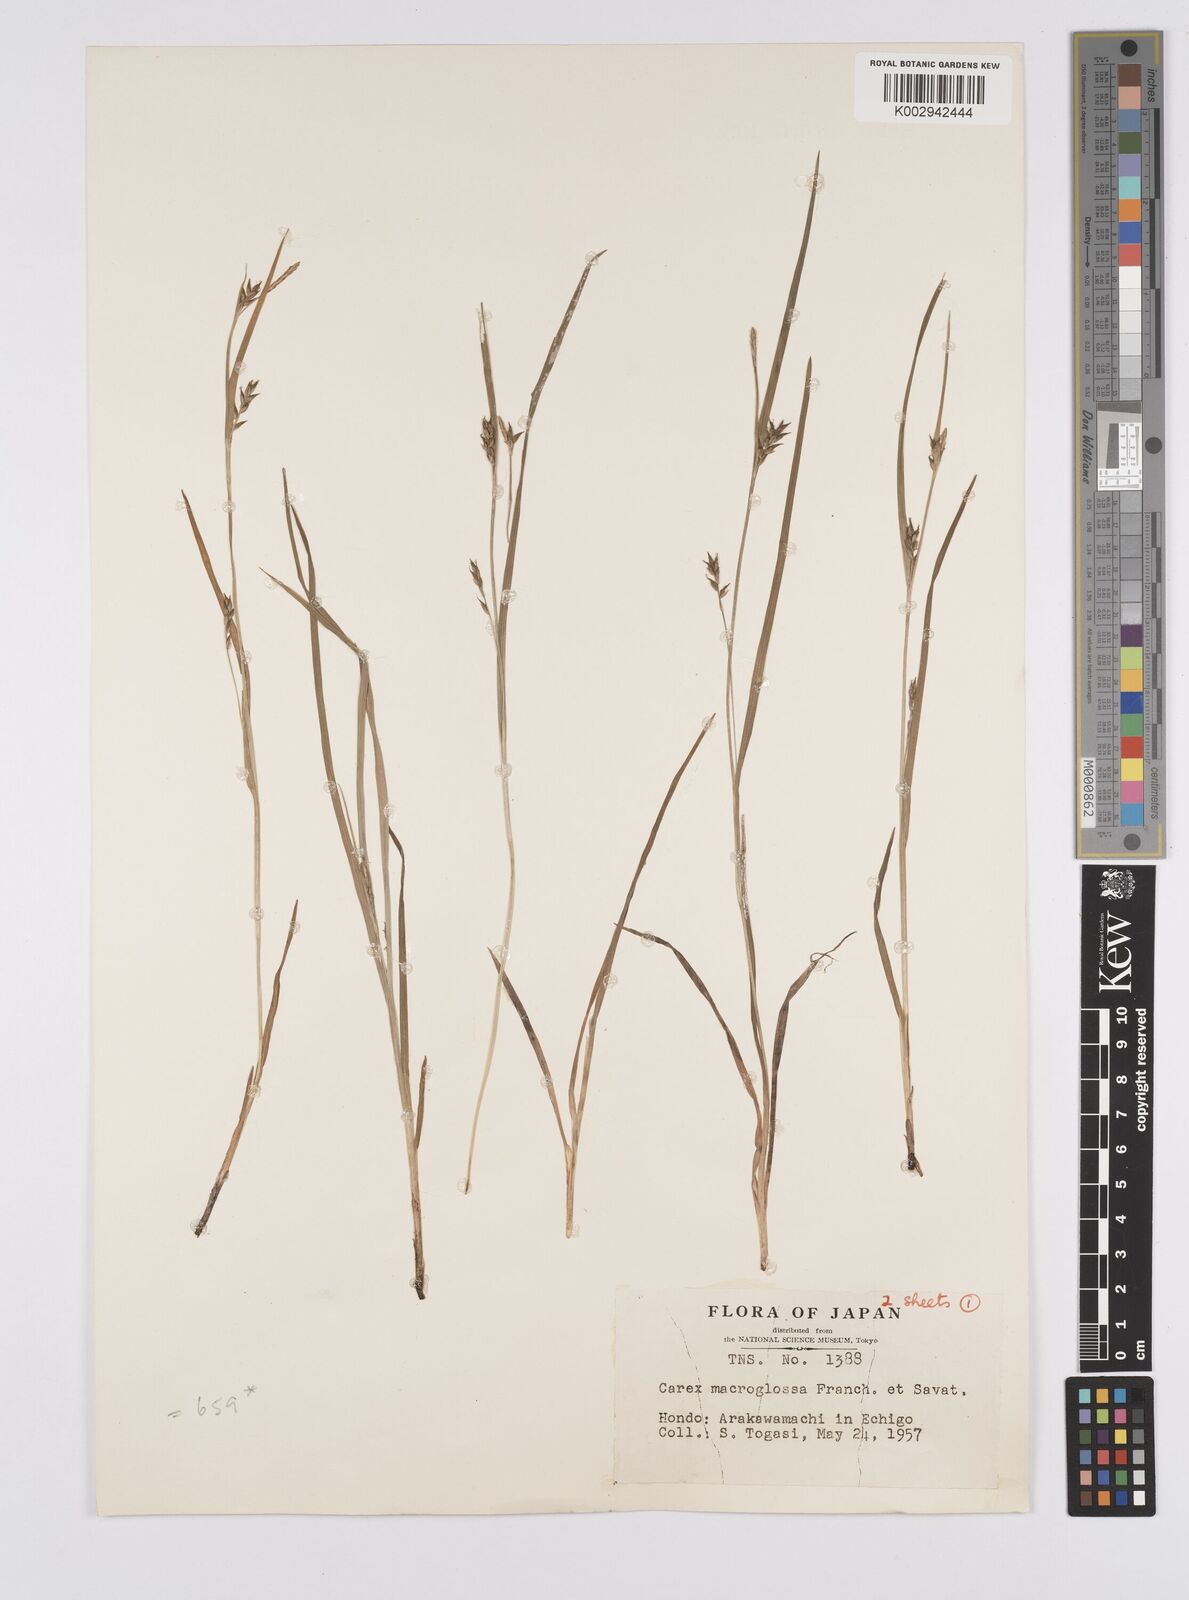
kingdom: Plantae
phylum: Tracheophyta
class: Liliopsida
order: Poales
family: Cyperaceae
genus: Carex
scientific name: Carex jackiana
